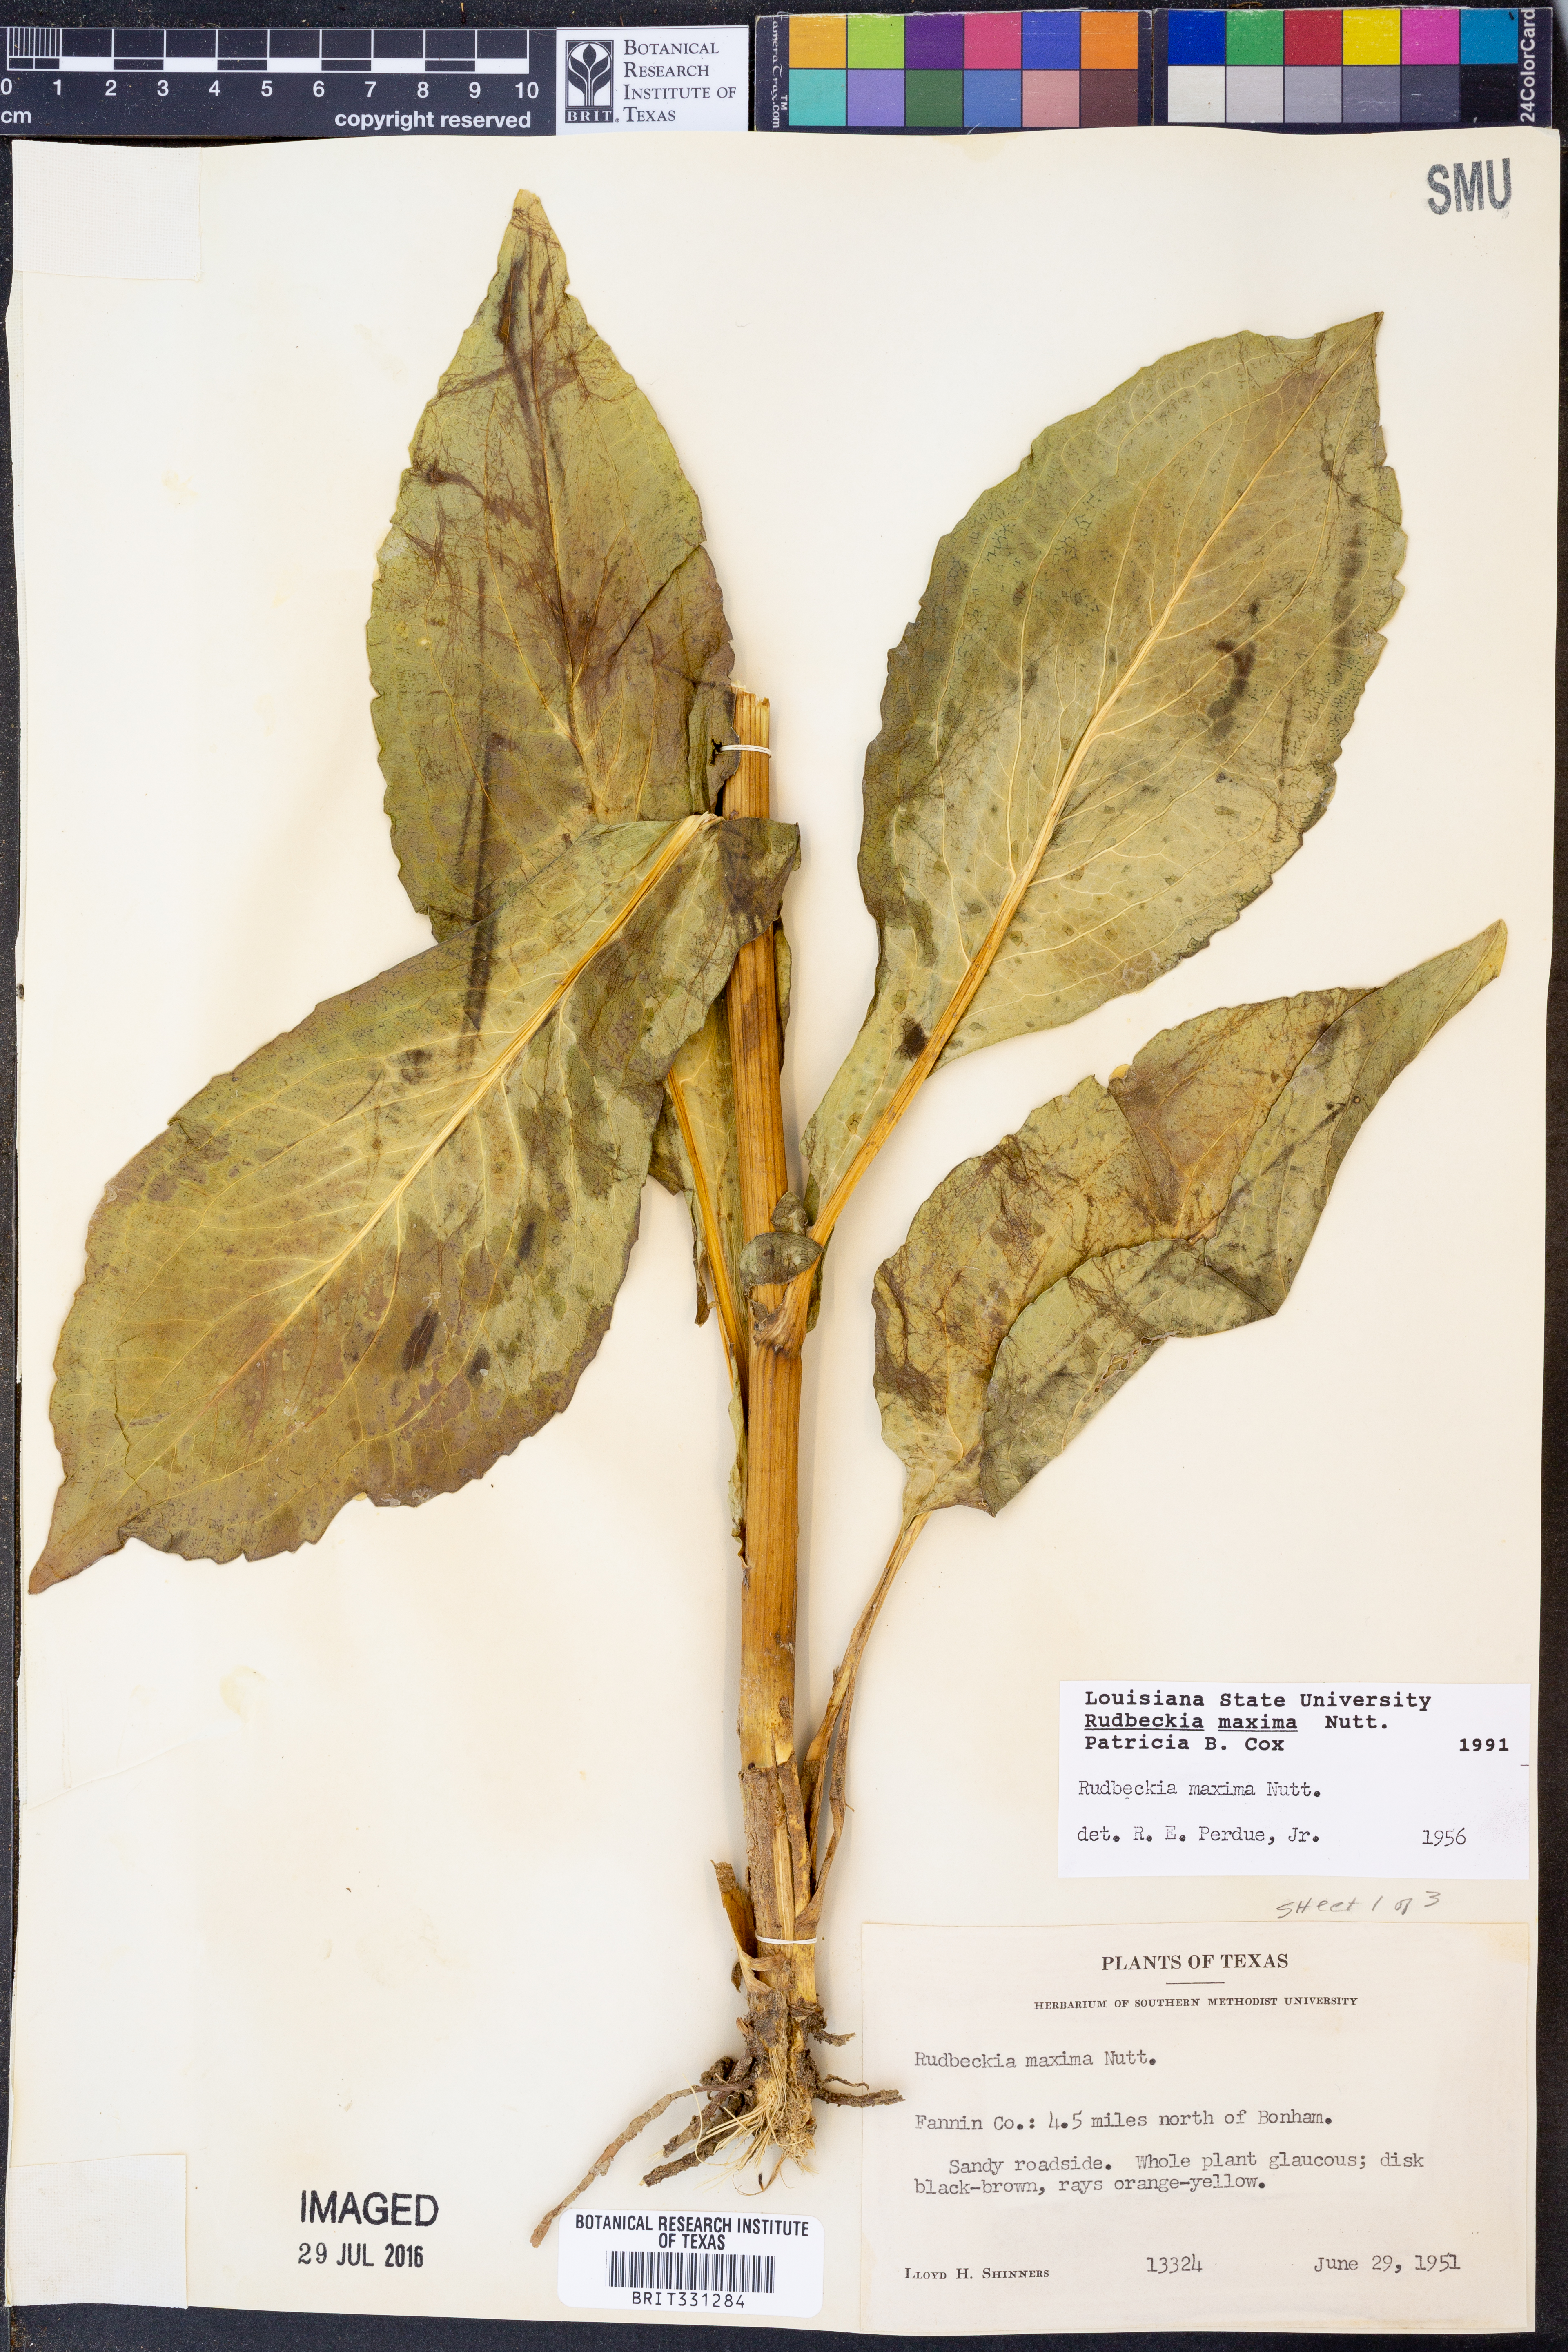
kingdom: Plantae
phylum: Tracheophyta
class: Magnoliopsida
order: Asterales
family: Asteraceae
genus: Rudbeckia
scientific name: Rudbeckia maxima
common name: Cabbage coneflower
